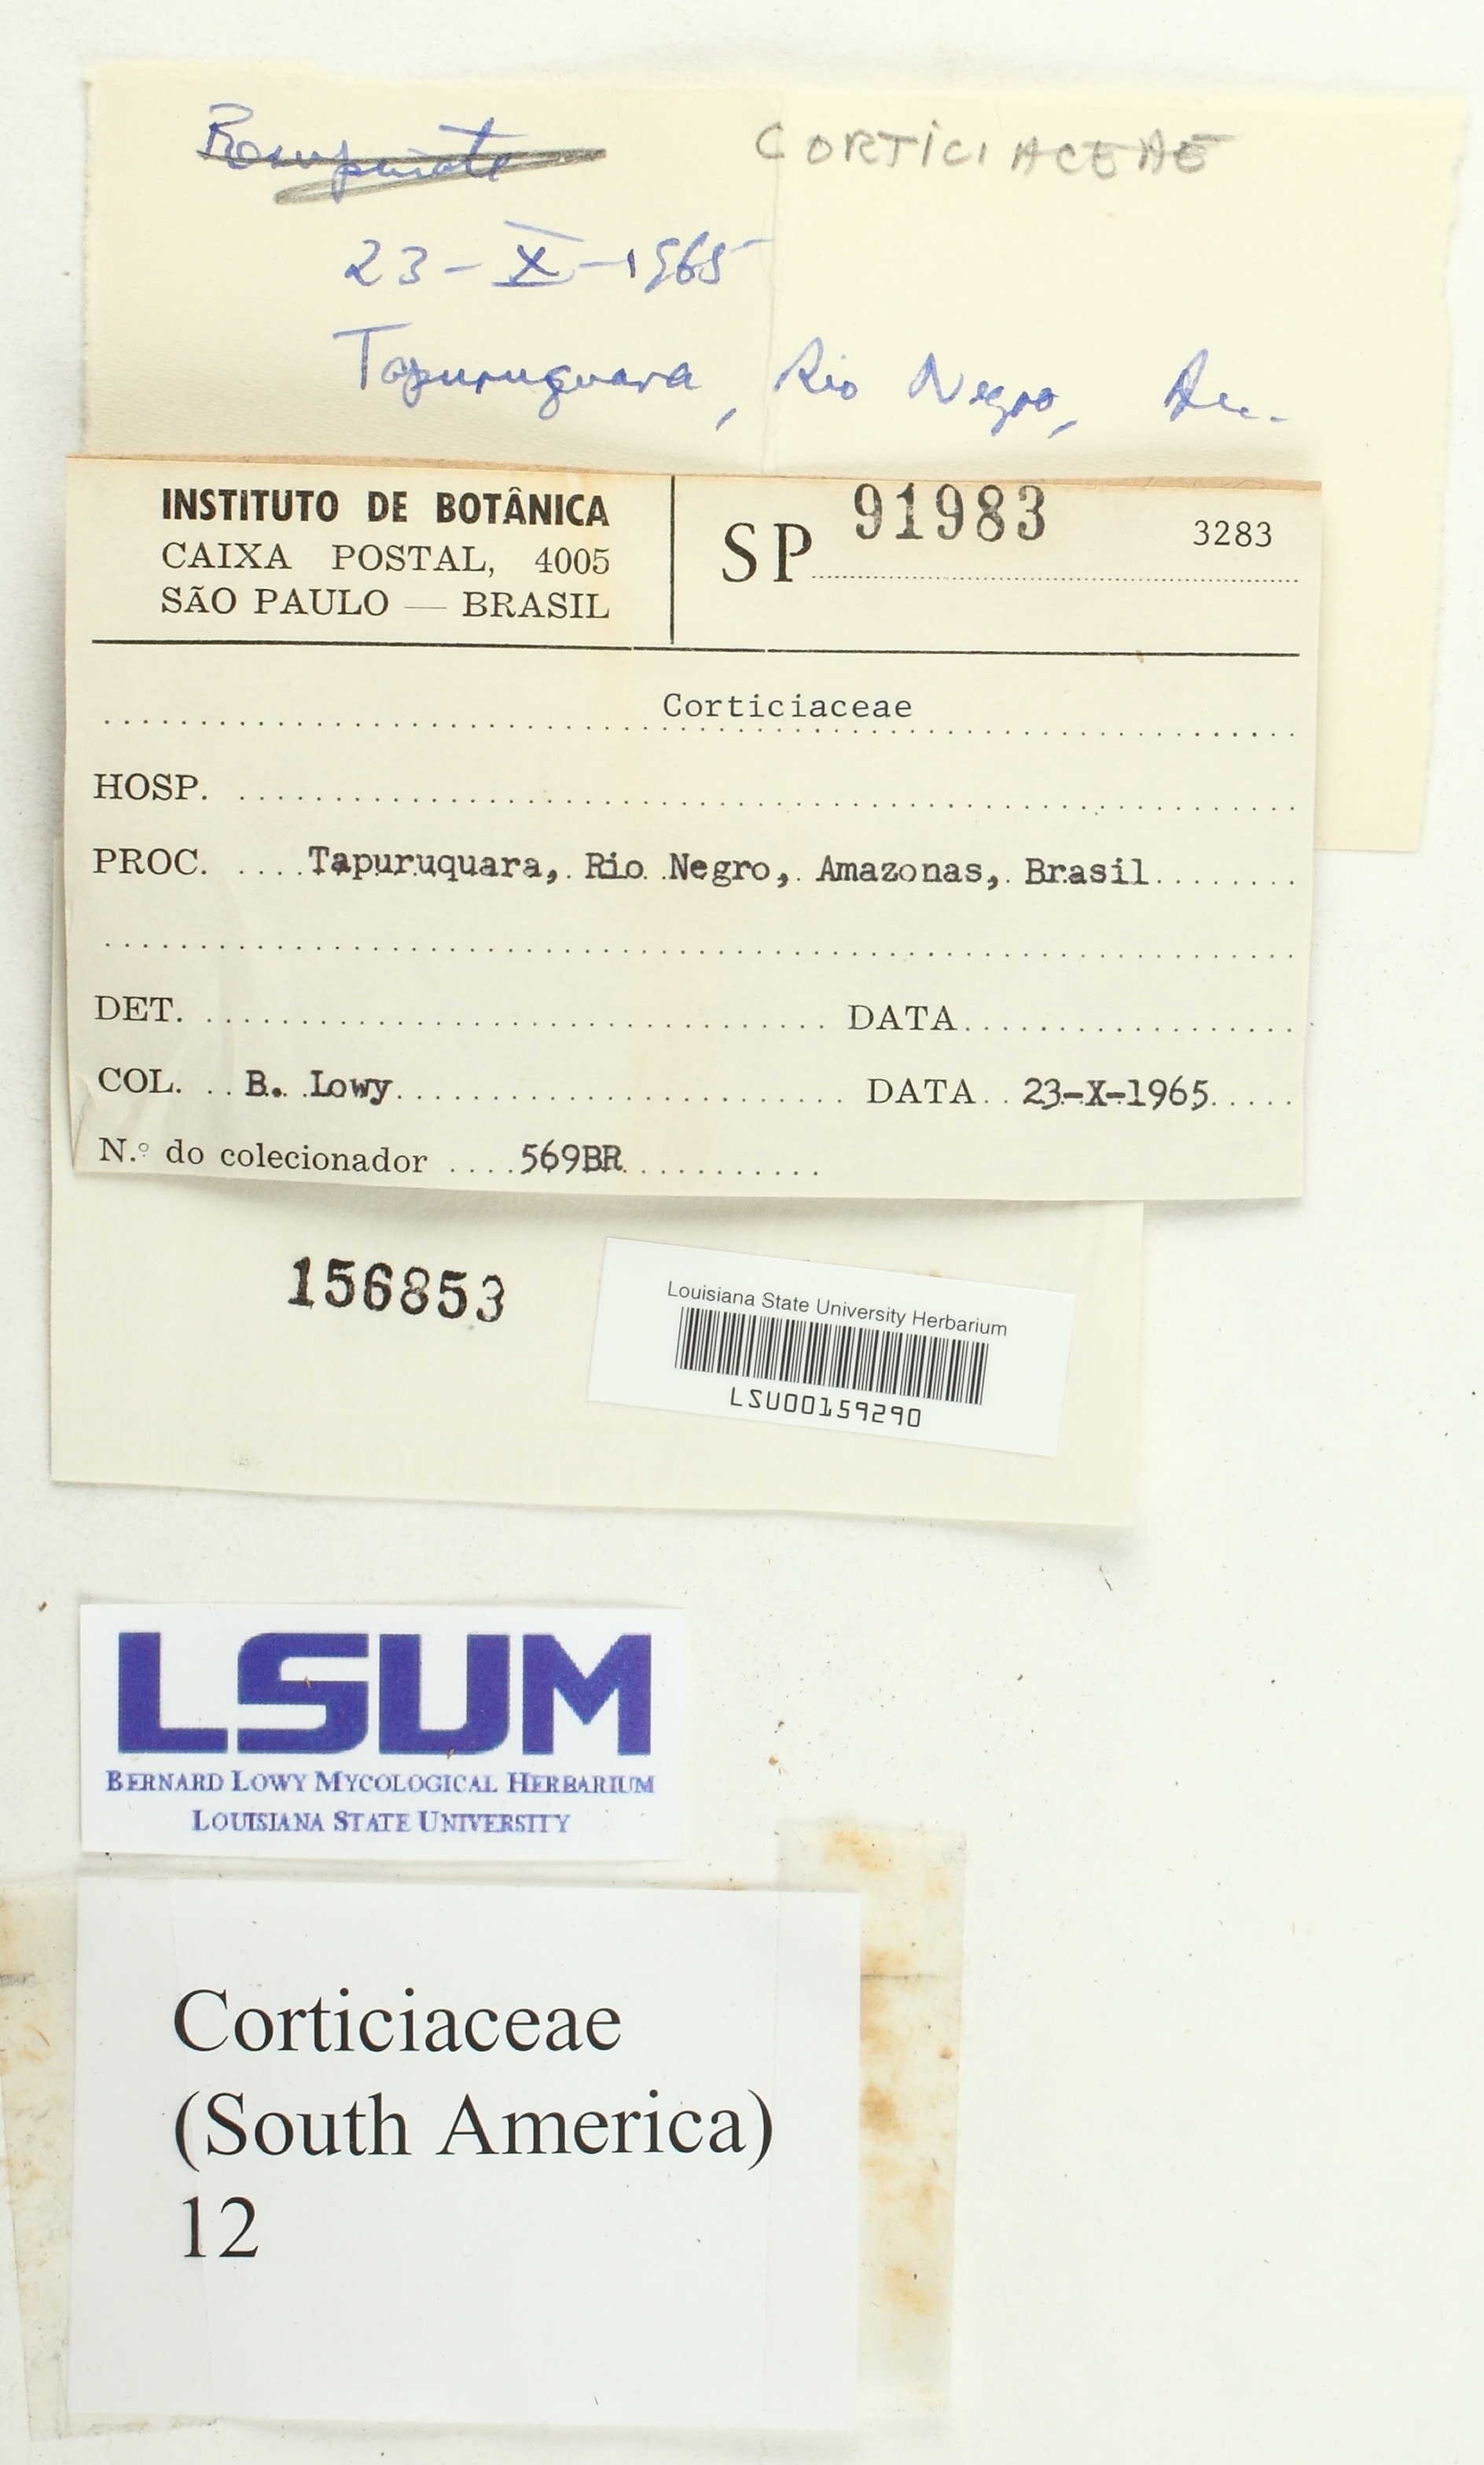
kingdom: Fungi
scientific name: Fungi
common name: Fungi
